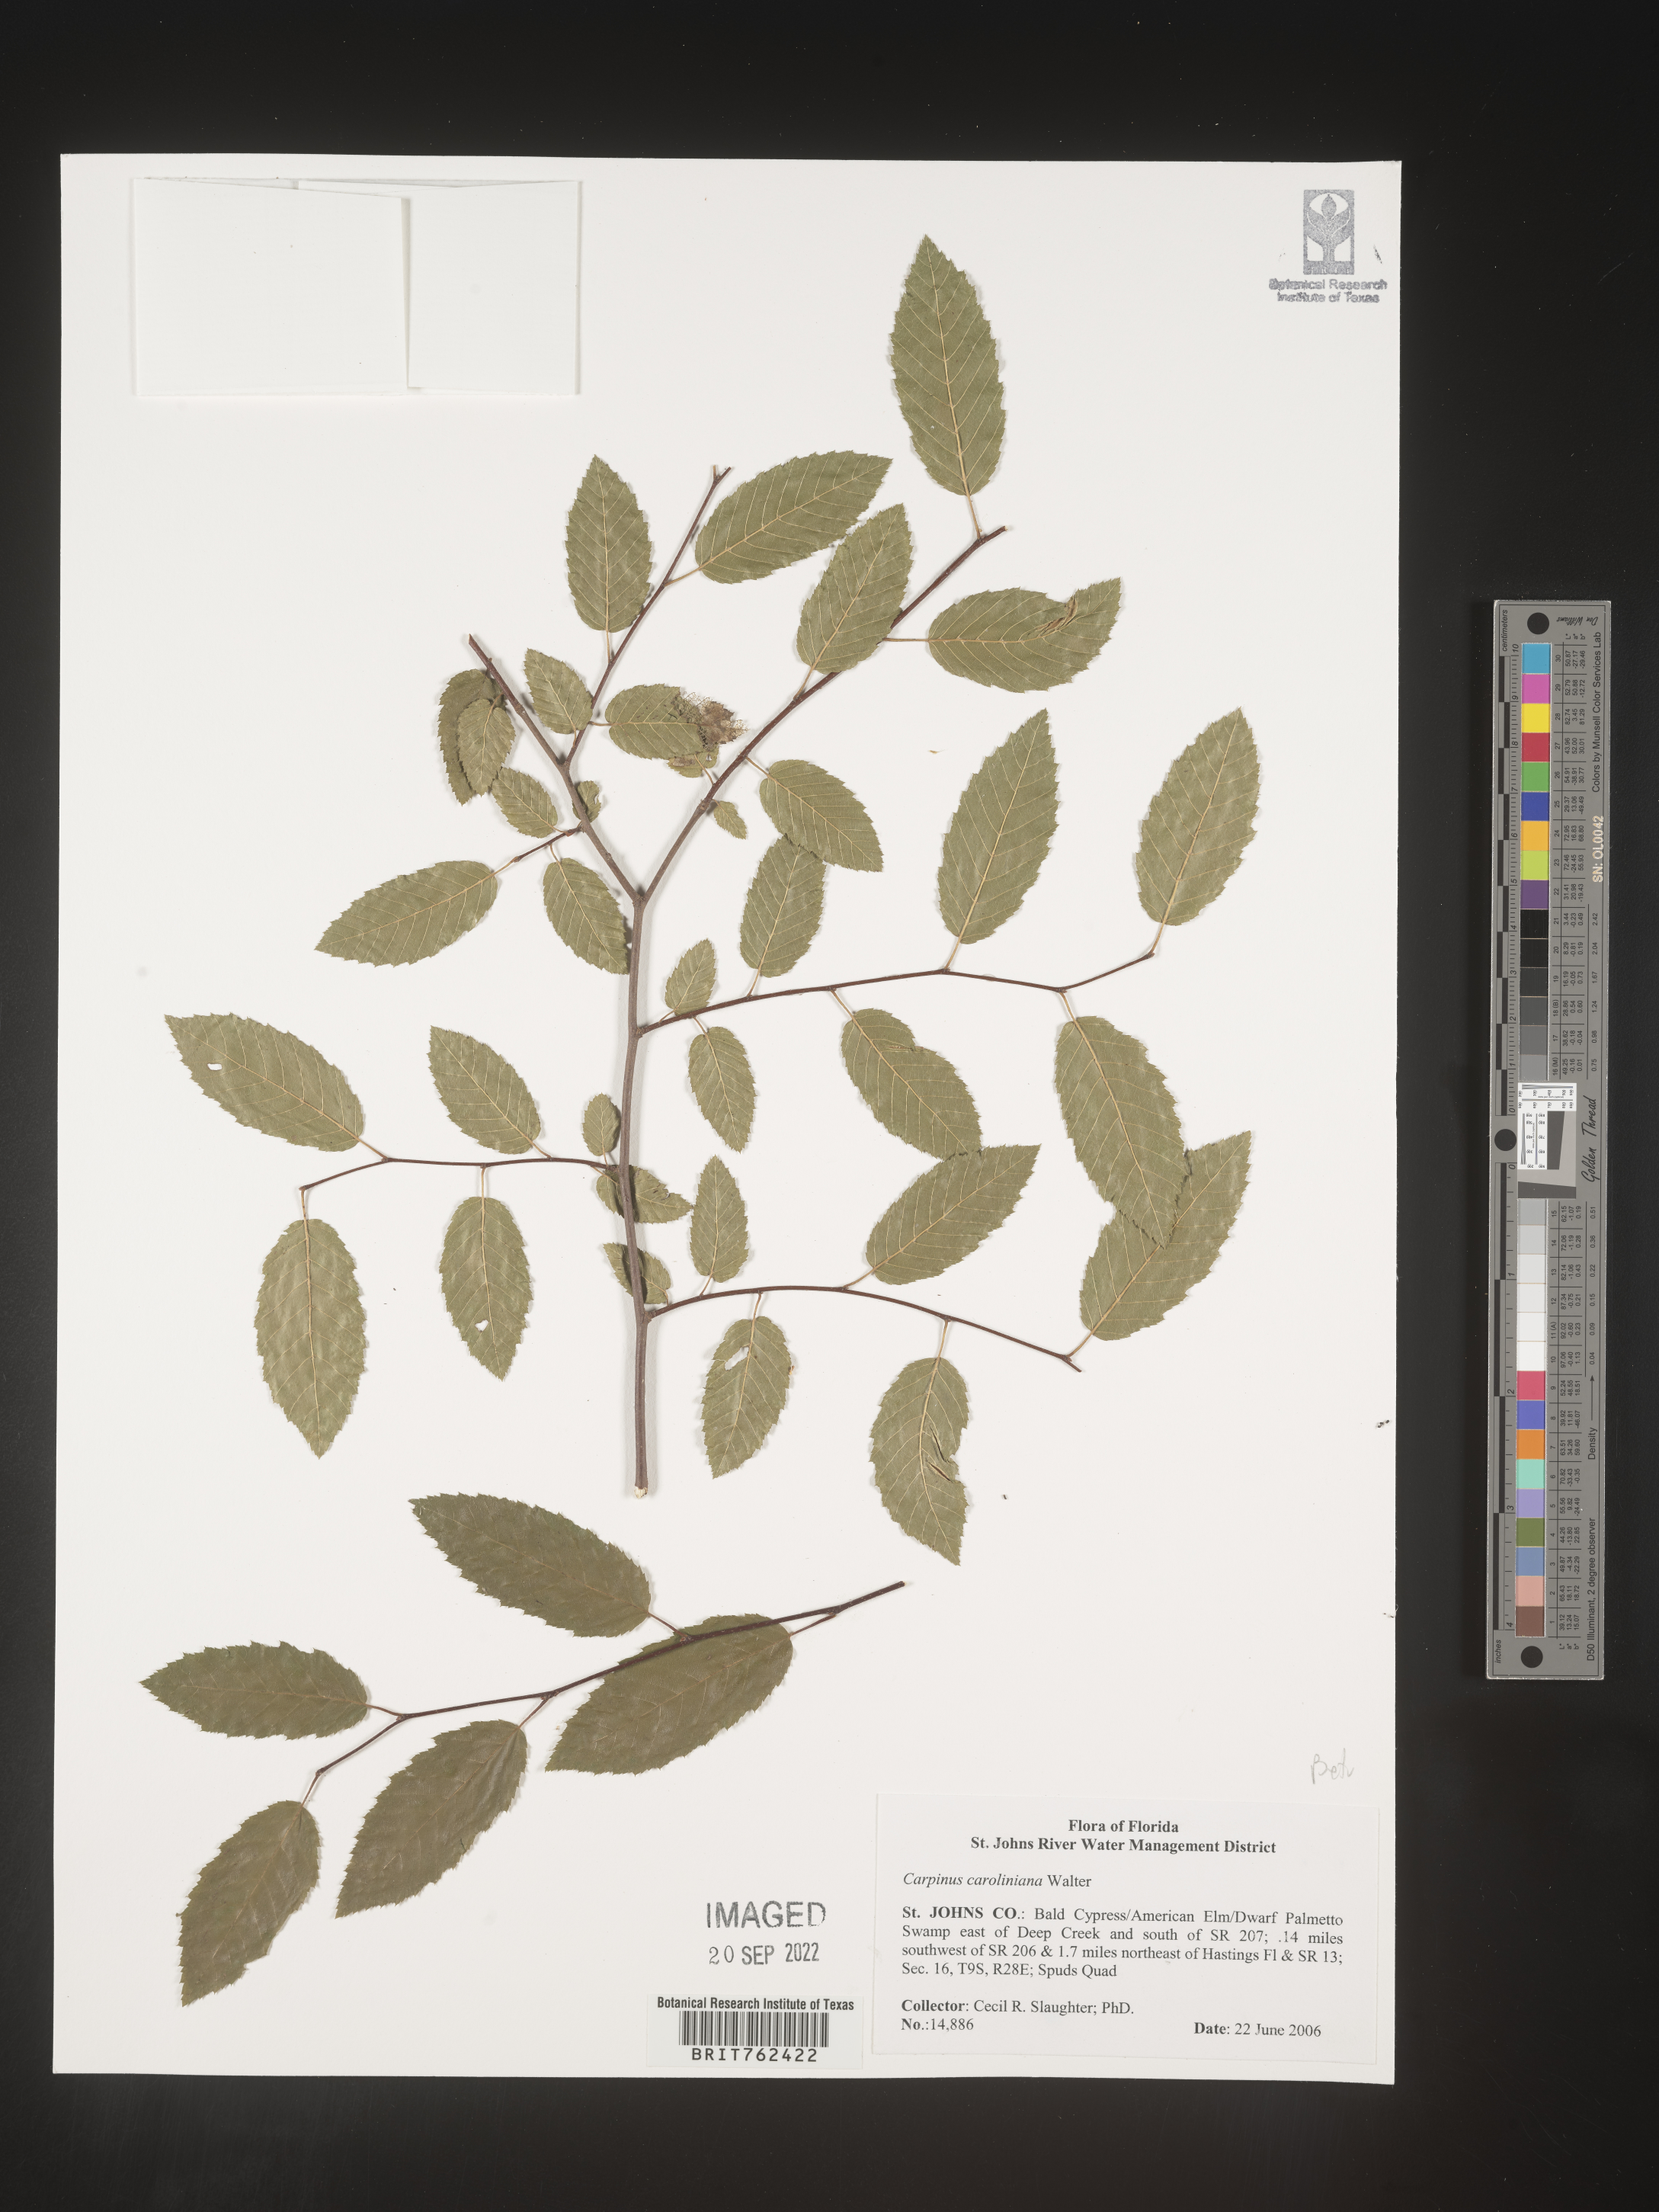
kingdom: Plantae
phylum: Tracheophyta
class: Magnoliopsida
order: Fagales
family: Betulaceae
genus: Carpinus
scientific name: Carpinus caroliniana
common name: American hornbeam
